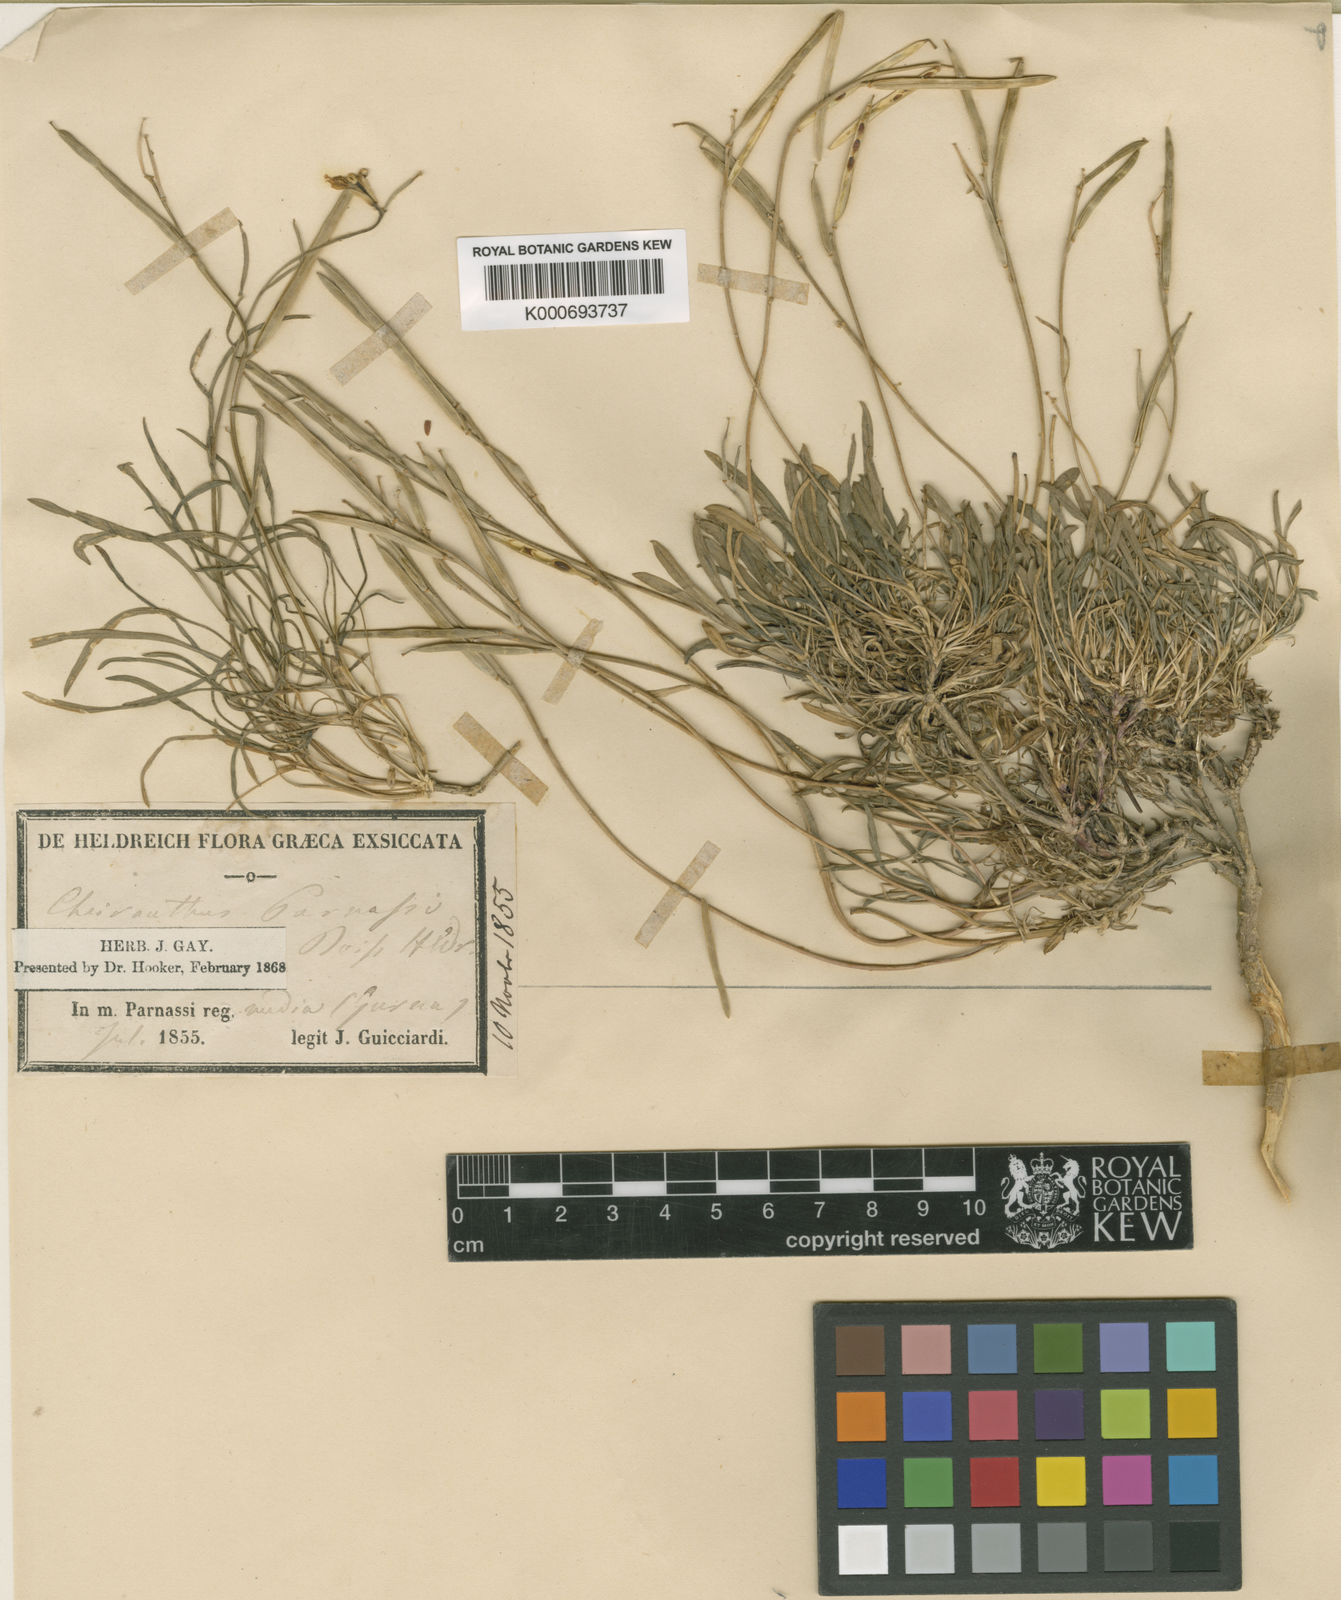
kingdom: Plantae
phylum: Tracheophyta
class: Magnoliopsida
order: Brassicales
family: Brassicaceae
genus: Erysimum
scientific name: Erysimum pusillum
